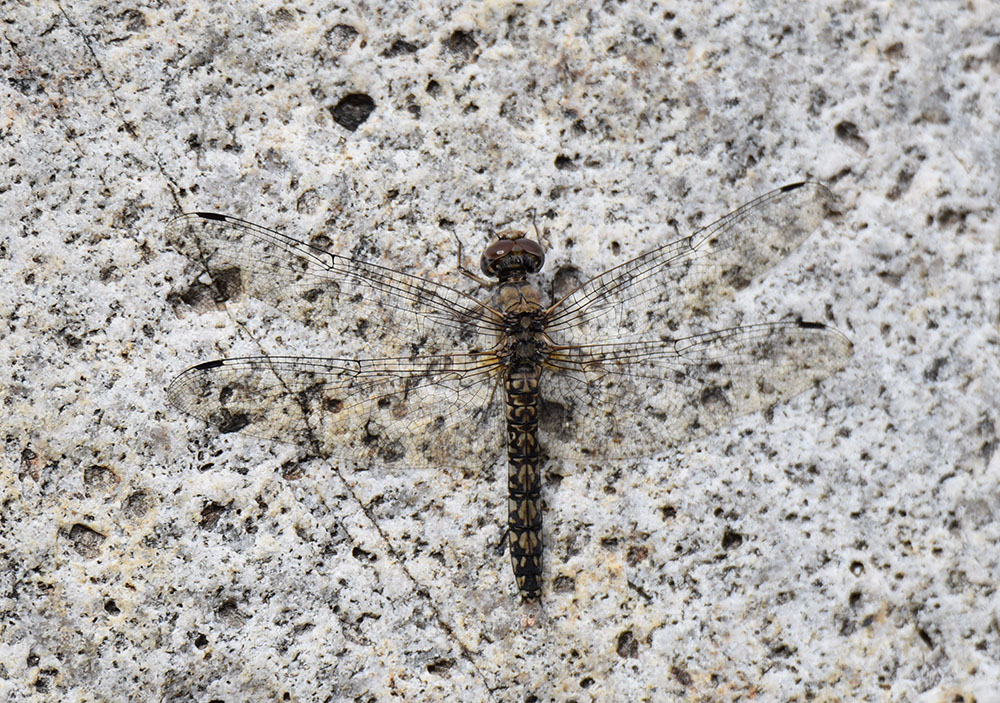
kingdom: Animalia
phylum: Arthropoda
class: Insecta
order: Odonata
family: Libellulidae
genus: Paltothemis
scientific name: Paltothemis lineatipes
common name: Red rock skimmer
